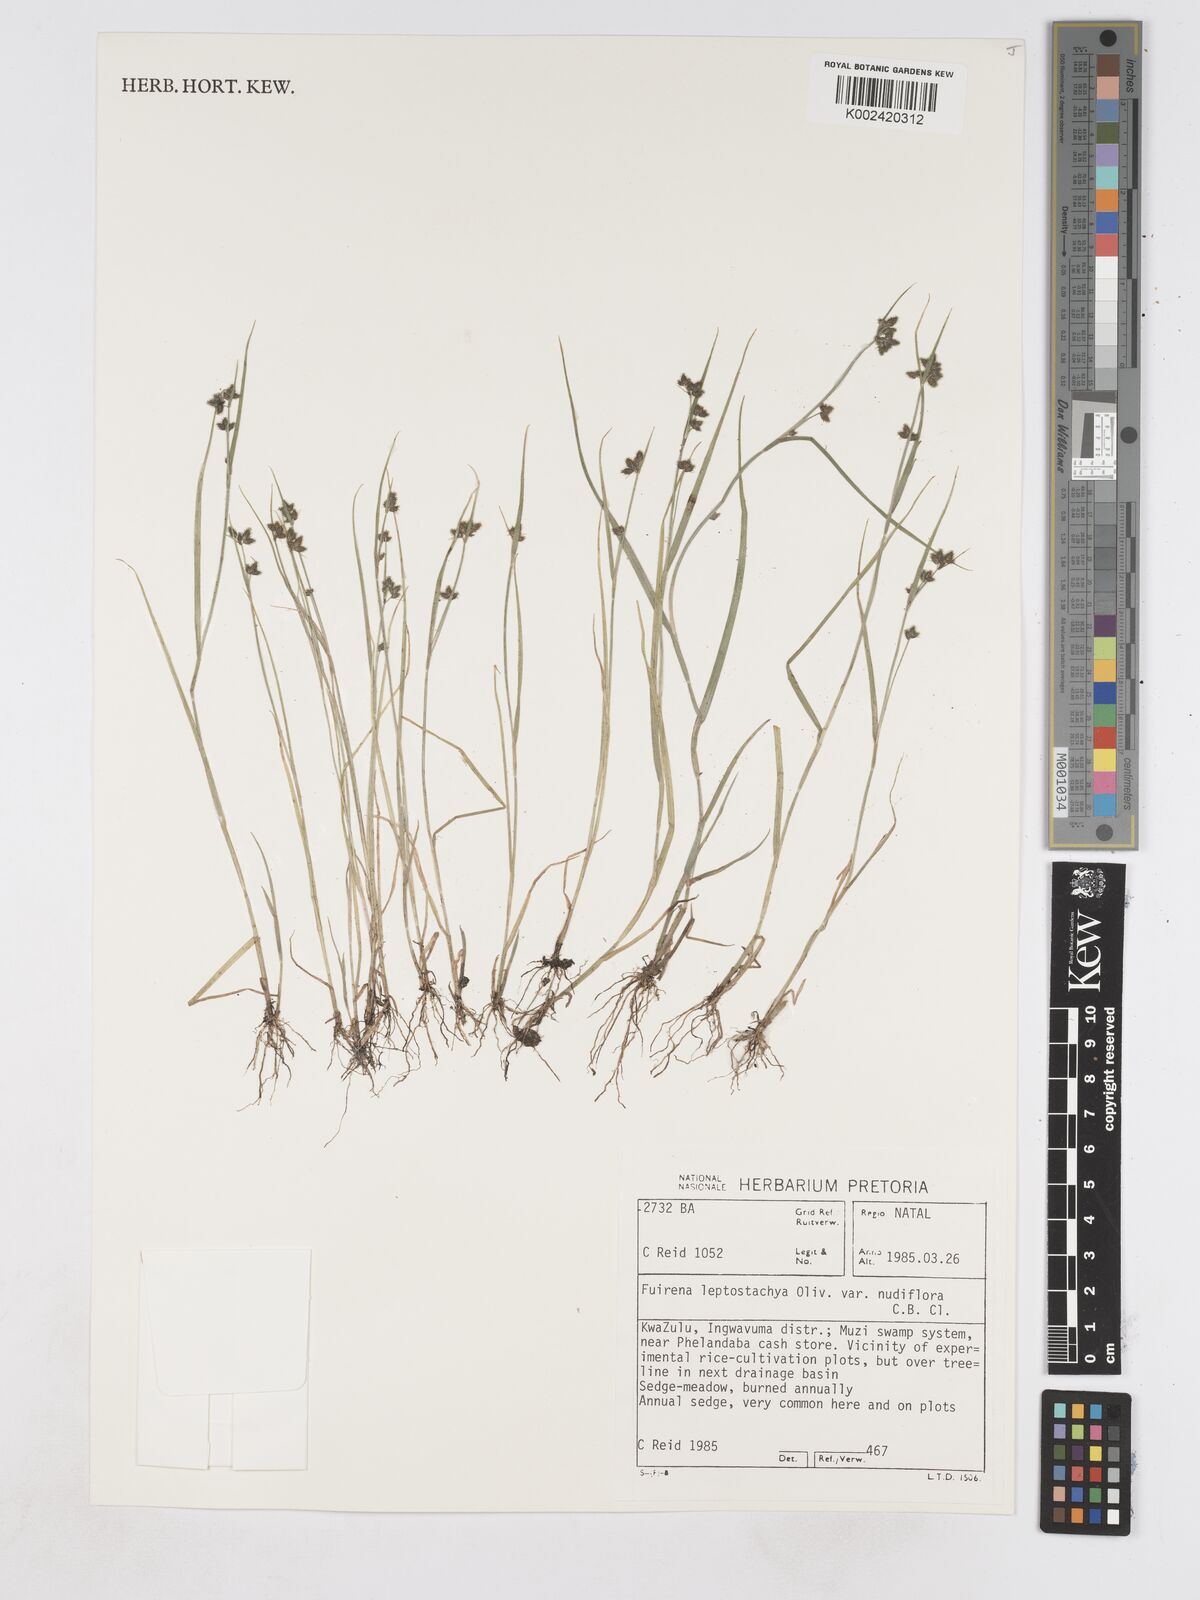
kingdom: Plantae
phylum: Tracheophyta
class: Liliopsida
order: Poales
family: Cyperaceae
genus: Fuirena
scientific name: Fuirena leptostachya
